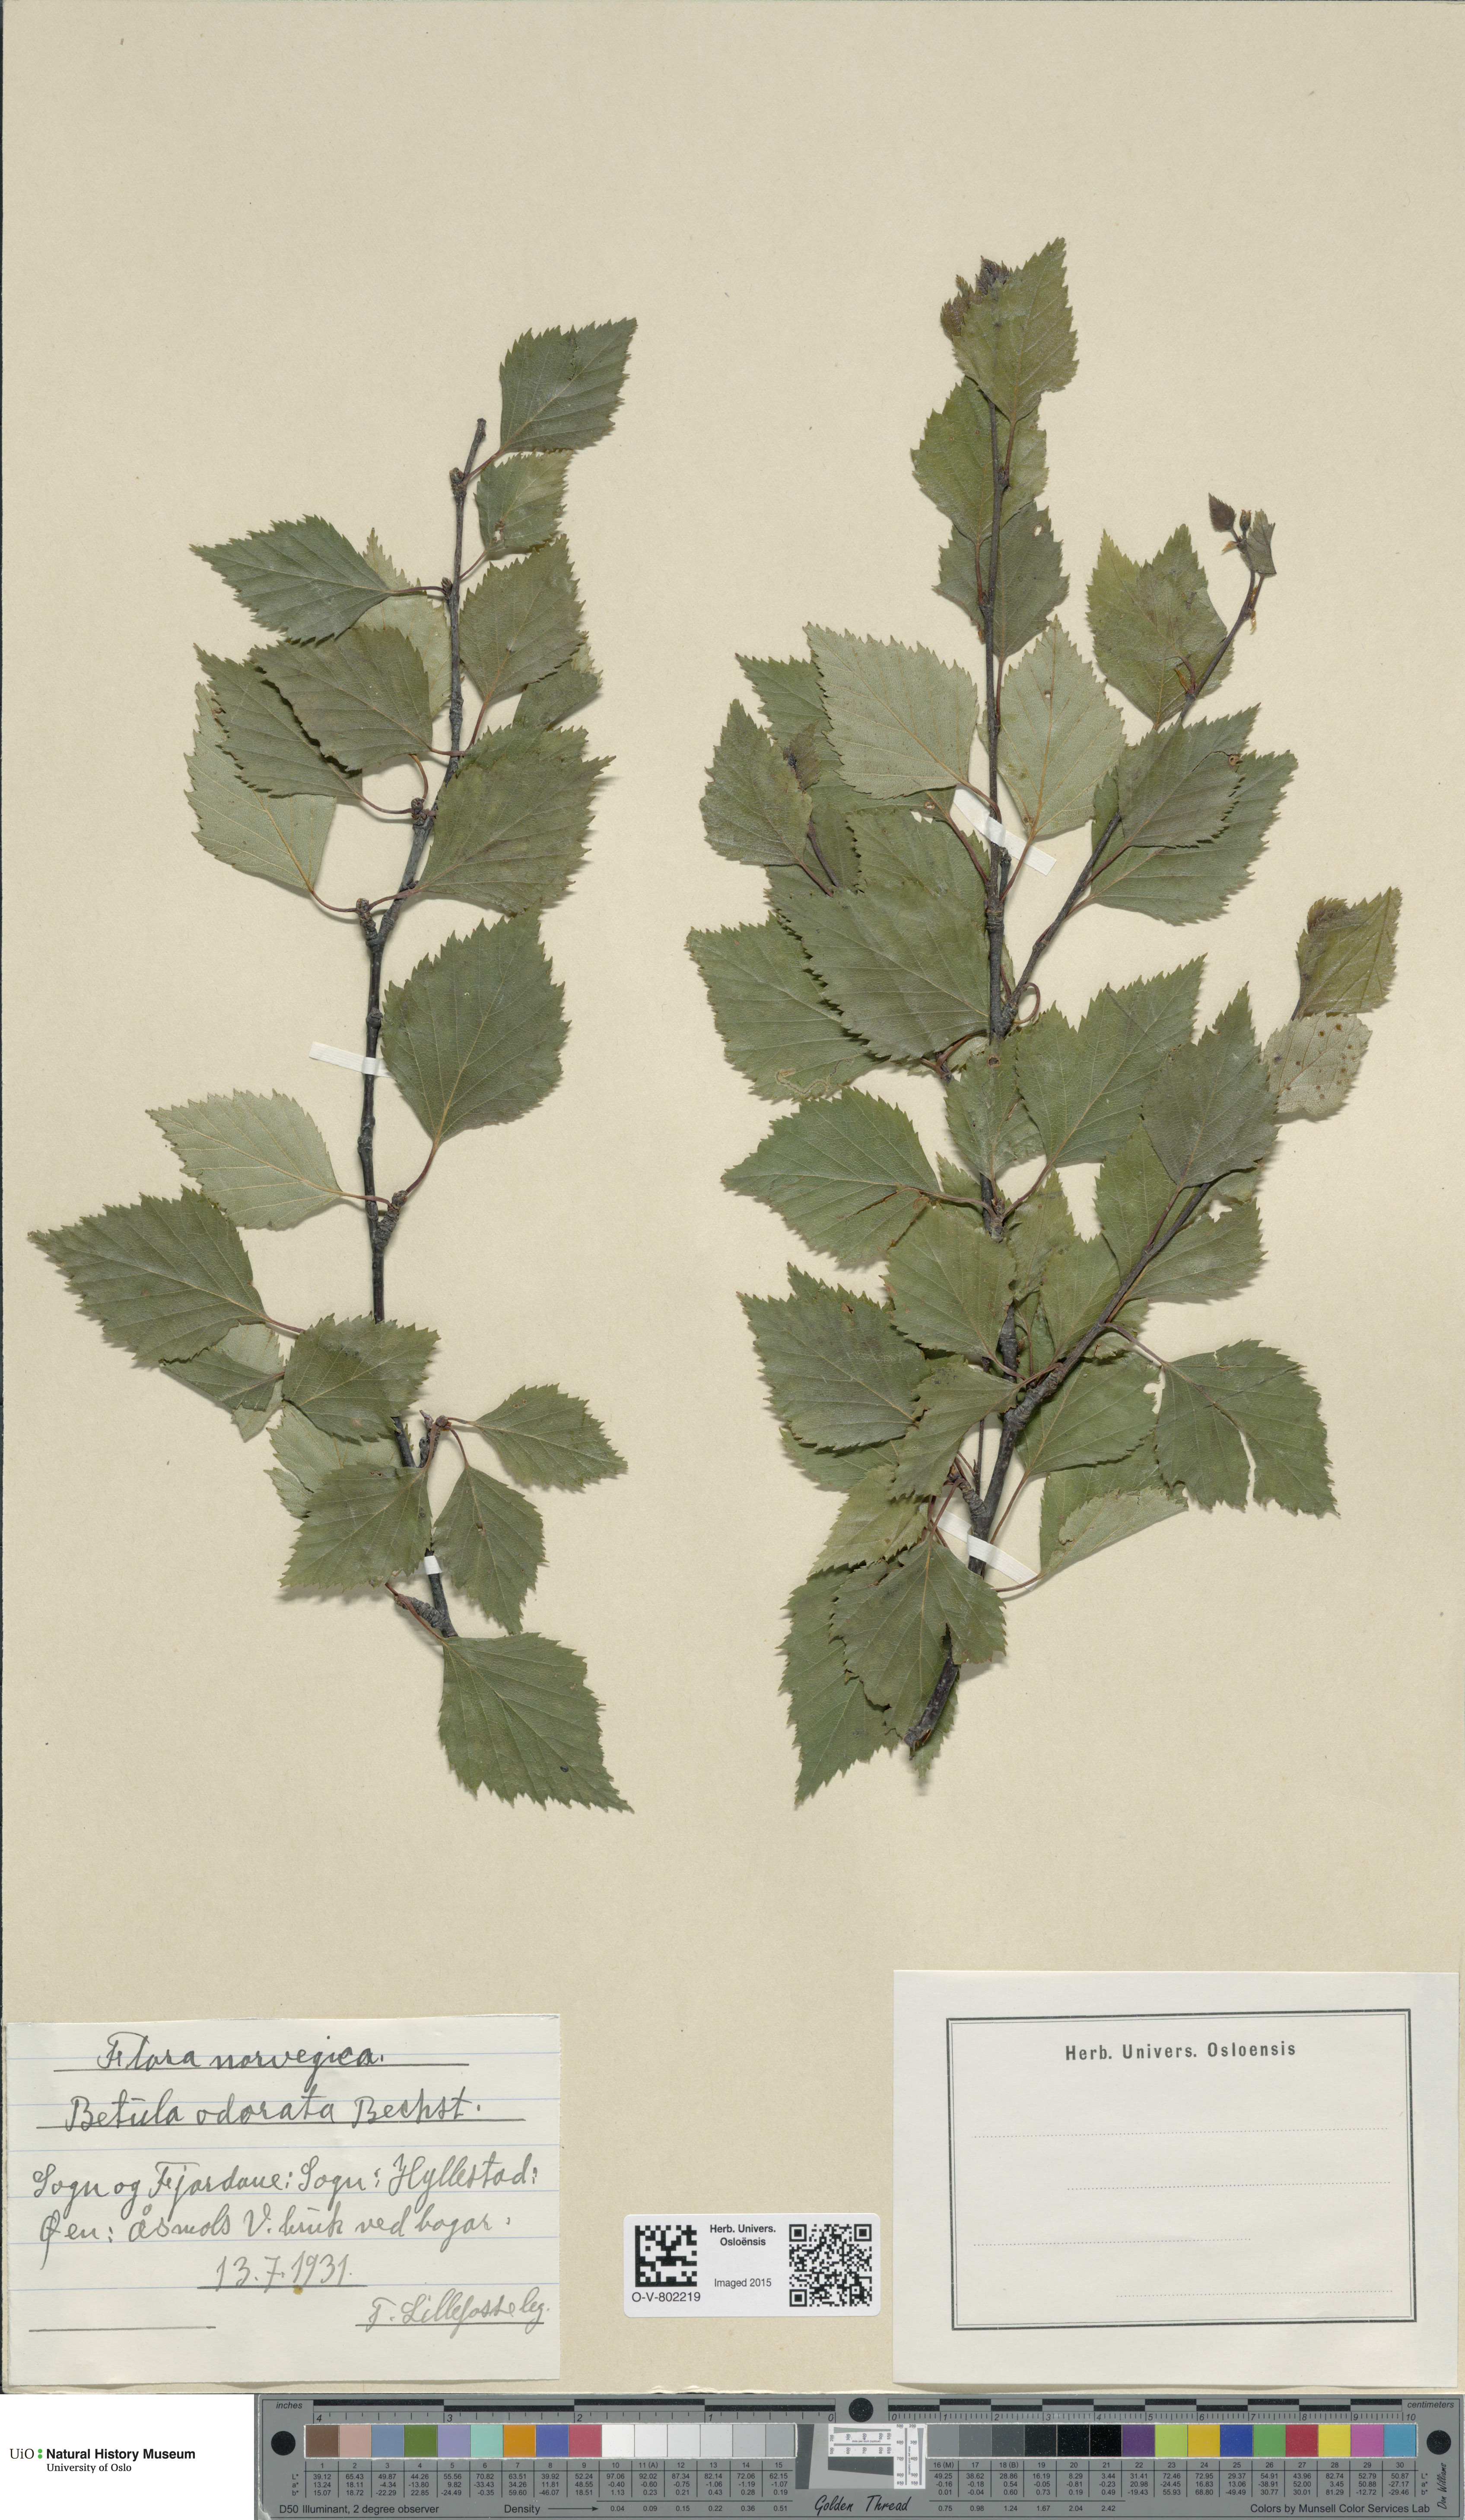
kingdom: Plantae
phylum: Tracheophyta
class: Magnoliopsida
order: Fagales
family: Betulaceae
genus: Betula
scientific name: Betula pubescens
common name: Downy birch
